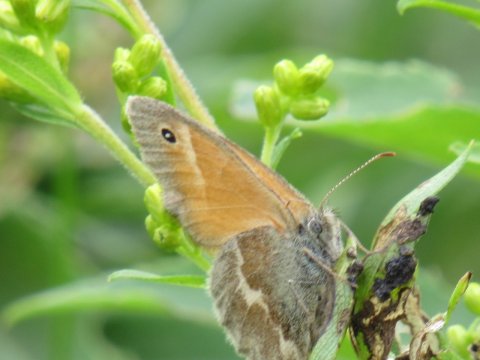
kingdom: Animalia
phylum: Arthropoda
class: Insecta
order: Lepidoptera
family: Nymphalidae
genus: Coenonympha
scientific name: Coenonympha tullia
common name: Large Heath
